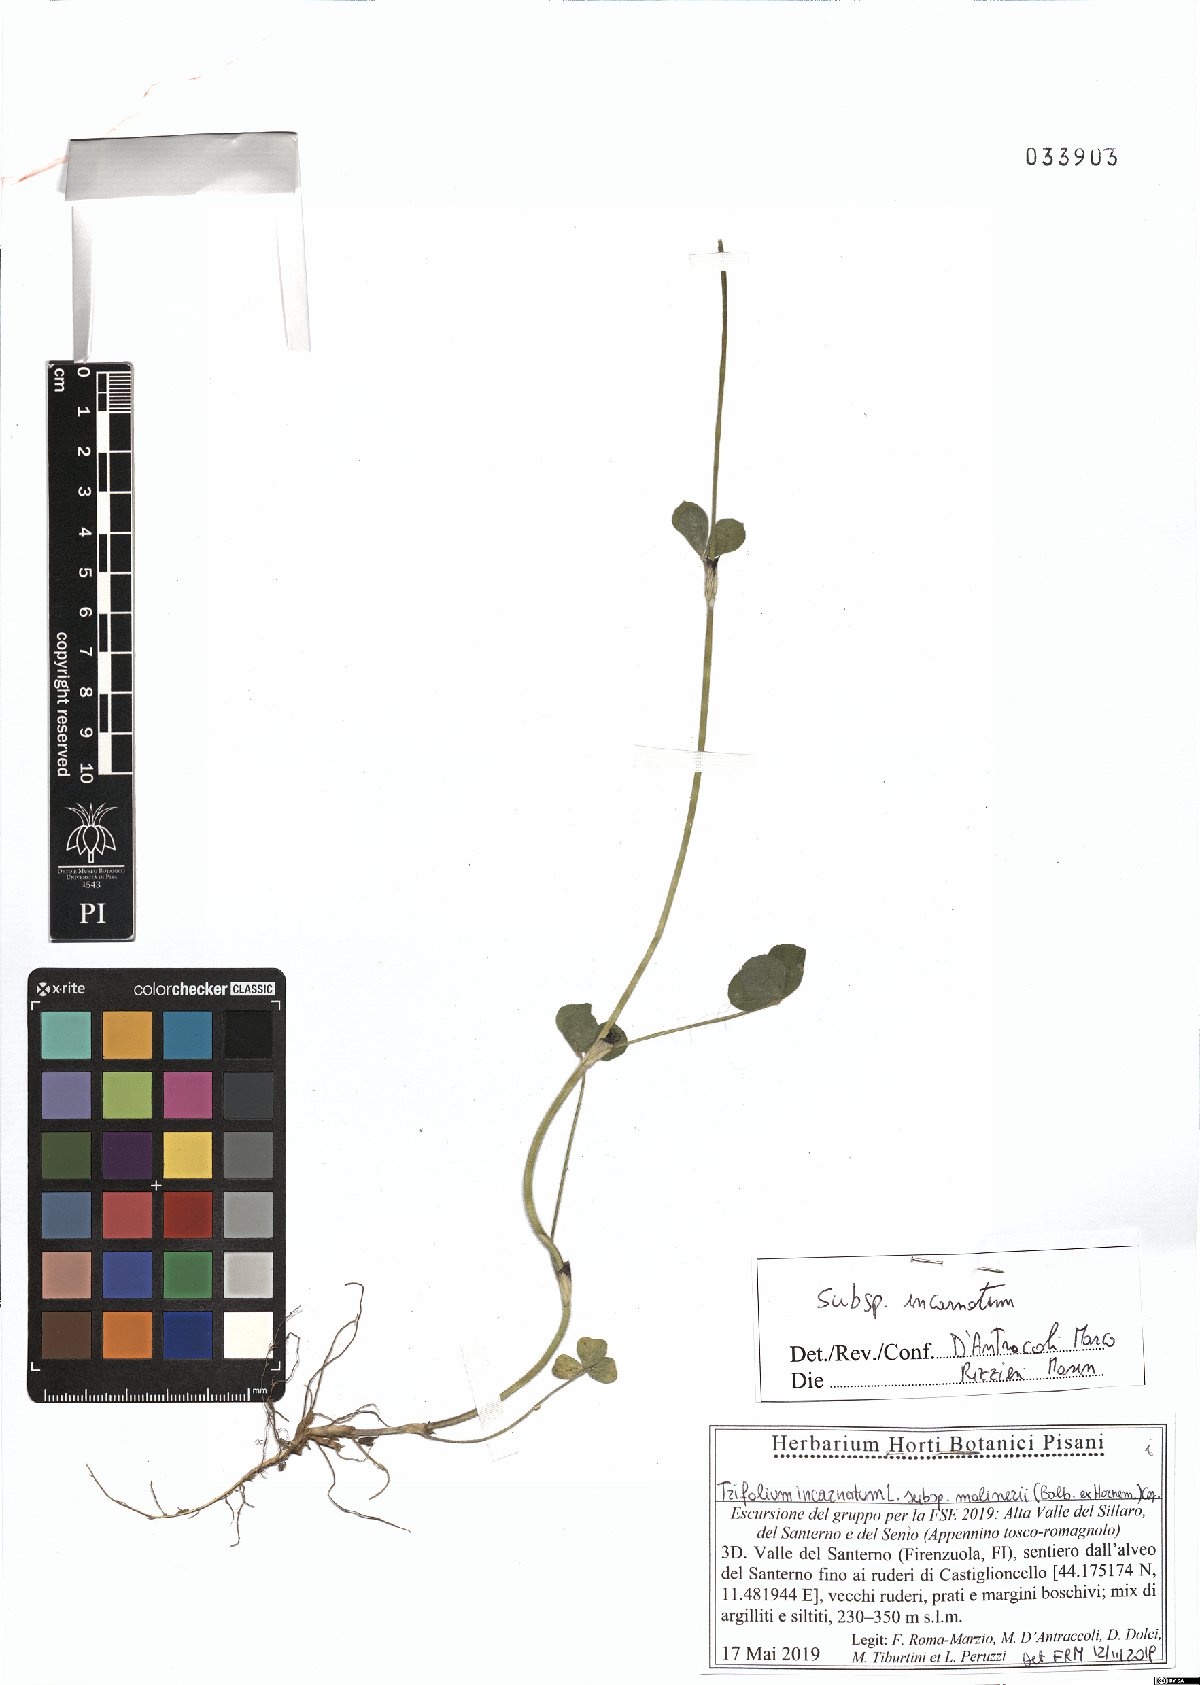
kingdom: Plantae
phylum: Tracheophyta
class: Magnoliopsida
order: Fabales
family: Fabaceae
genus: Trifolium
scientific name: Trifolium incarnatum
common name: Crimson clover
